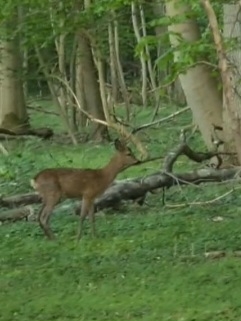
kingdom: Animalia
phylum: Chordata
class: Mammalia
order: Artiodactyla
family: Cervidae
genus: Capreolus
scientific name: Capreolus capreolus
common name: Rådyr
